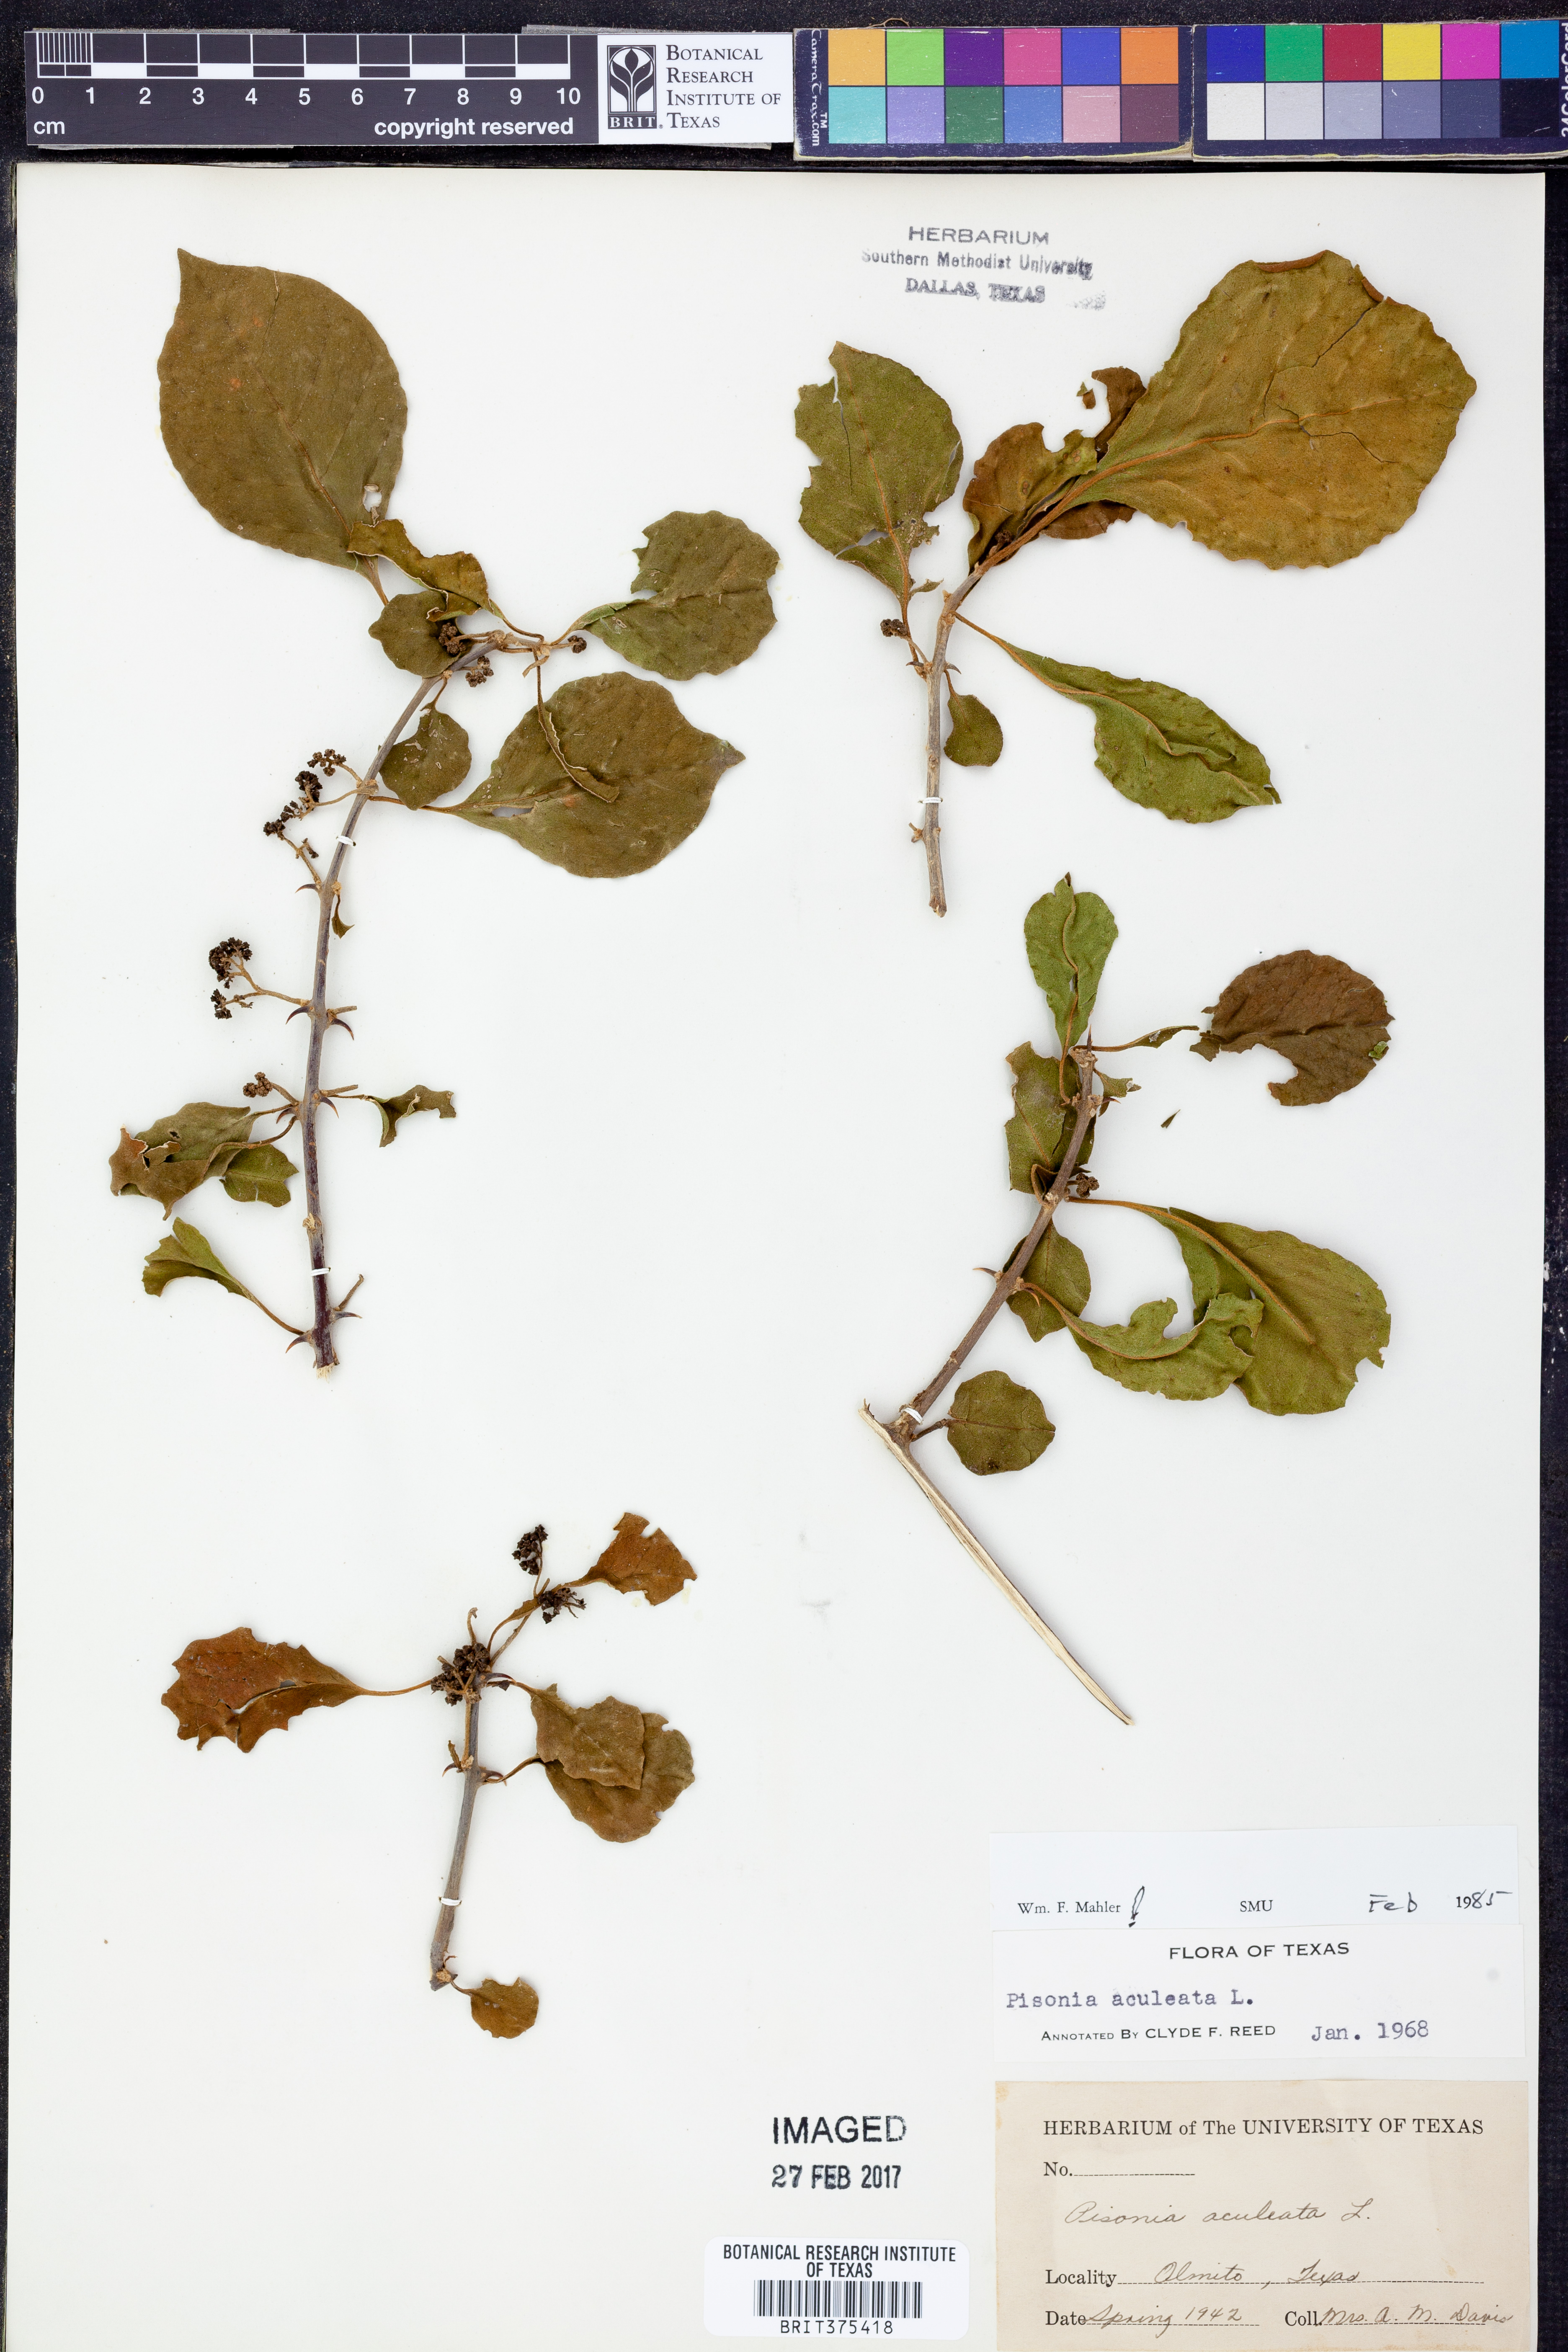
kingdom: Plantae
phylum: Tracheophyta
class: Magnoliopsida
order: Caryophyllales
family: Nyctaginaceae
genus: Pisonia
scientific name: Pisonia aculeata
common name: Cockspur vine
